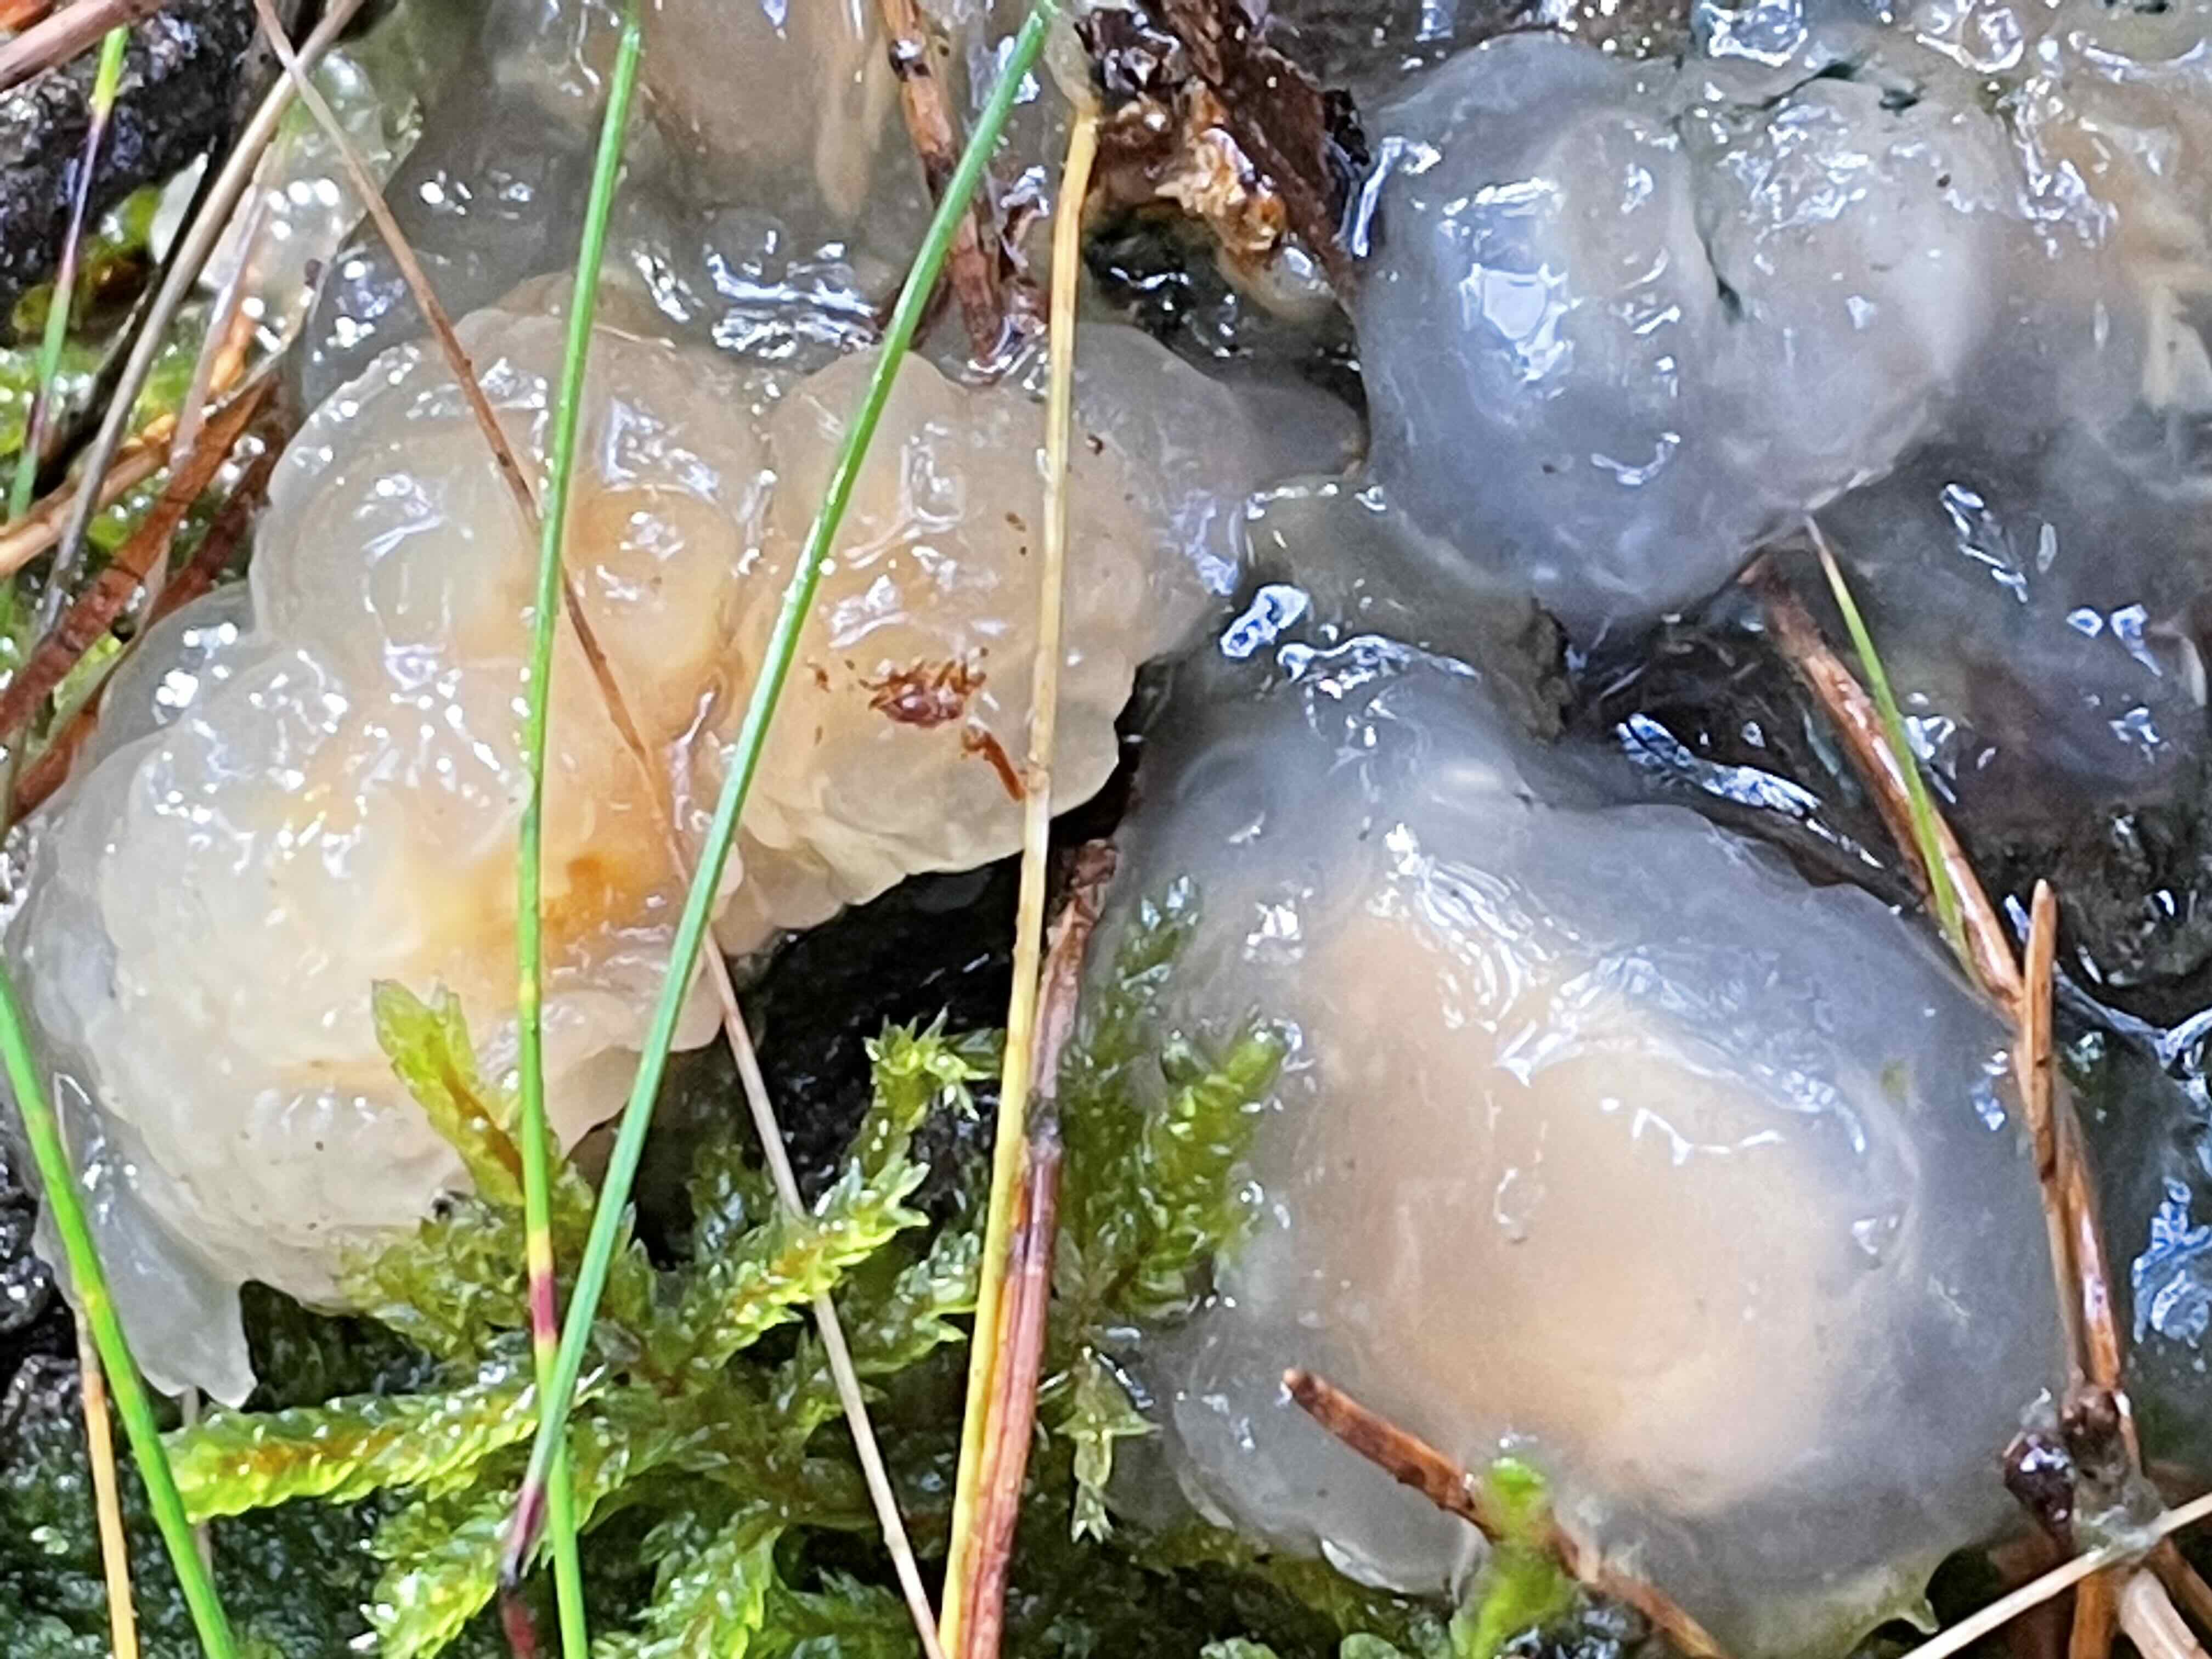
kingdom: Fungi
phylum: Basidiomycota
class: Tremellomycetes
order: Tremellales
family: Naemateliaceae
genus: Naematelia
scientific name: Naematelia encephala
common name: fyrre-bævresvamp
